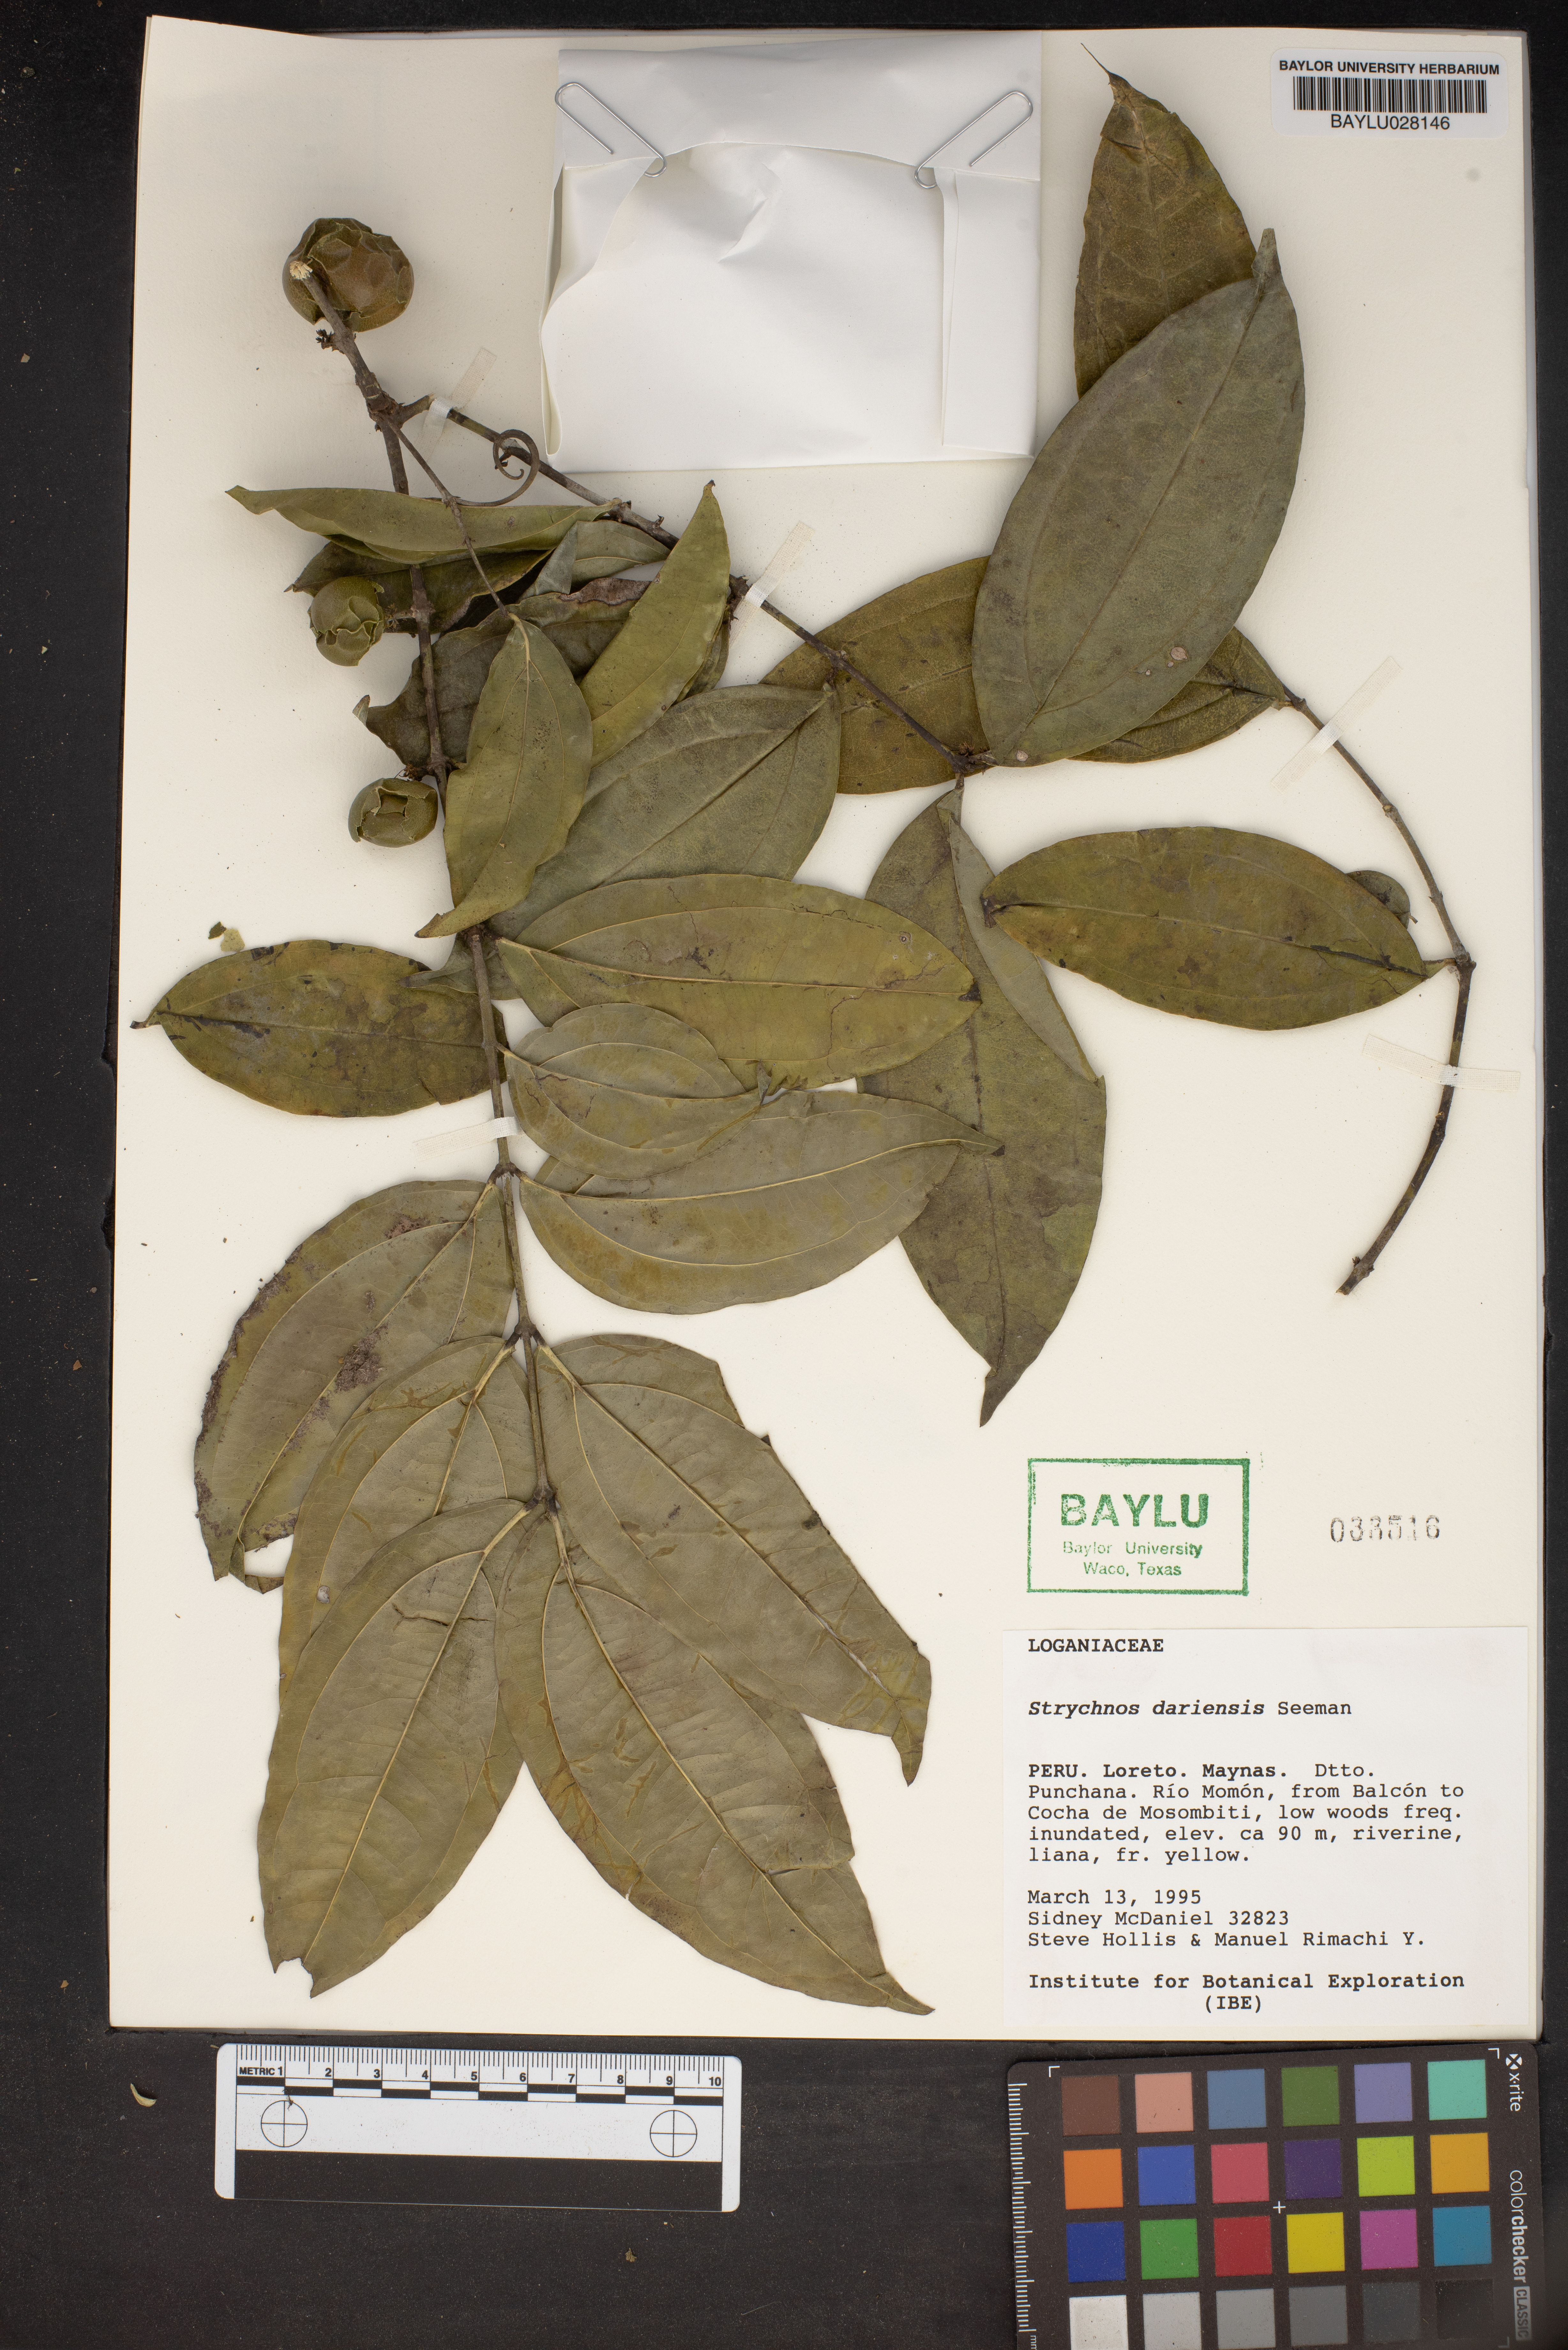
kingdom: Plantae
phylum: Tracheophyta
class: Magnoliopsida
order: Gentianales
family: Loganiaceae
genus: Strychnos
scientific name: Strychnos darienensis
